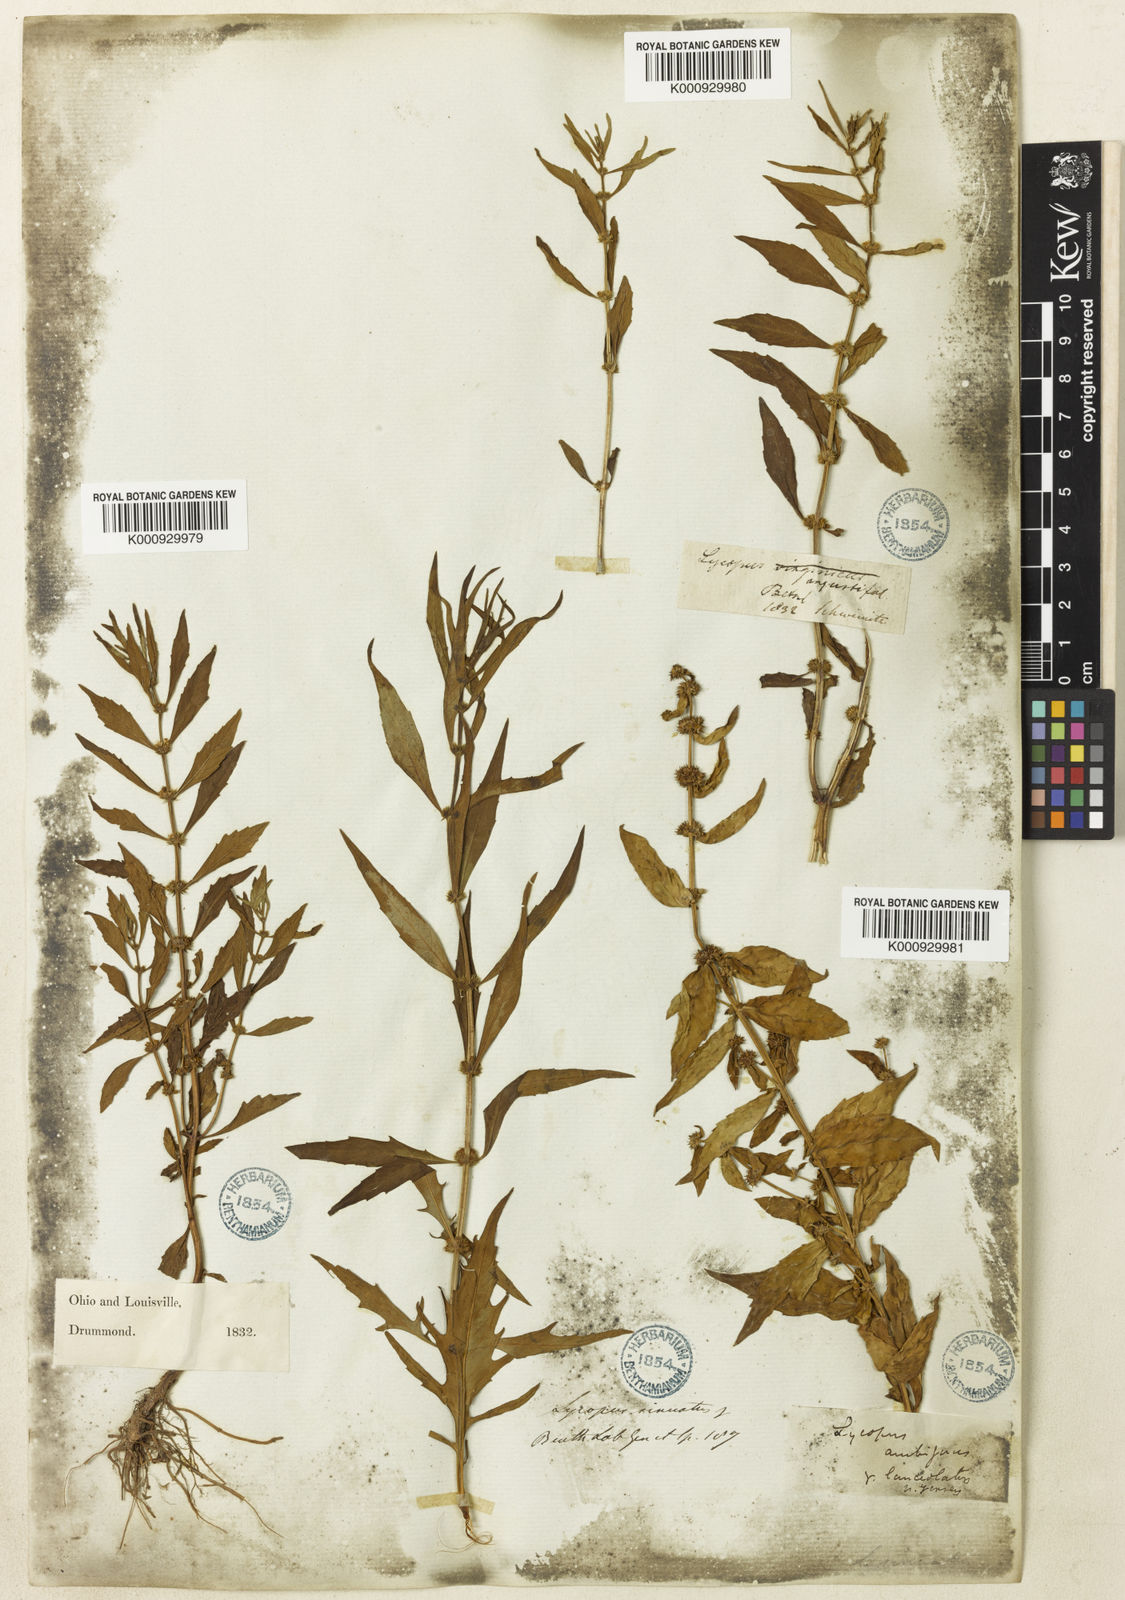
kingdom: Plantae
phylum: Tracheophyta
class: Magnoliopsida
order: Lamiales
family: Lamiaceae
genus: Lycopus
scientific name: Lycopus
